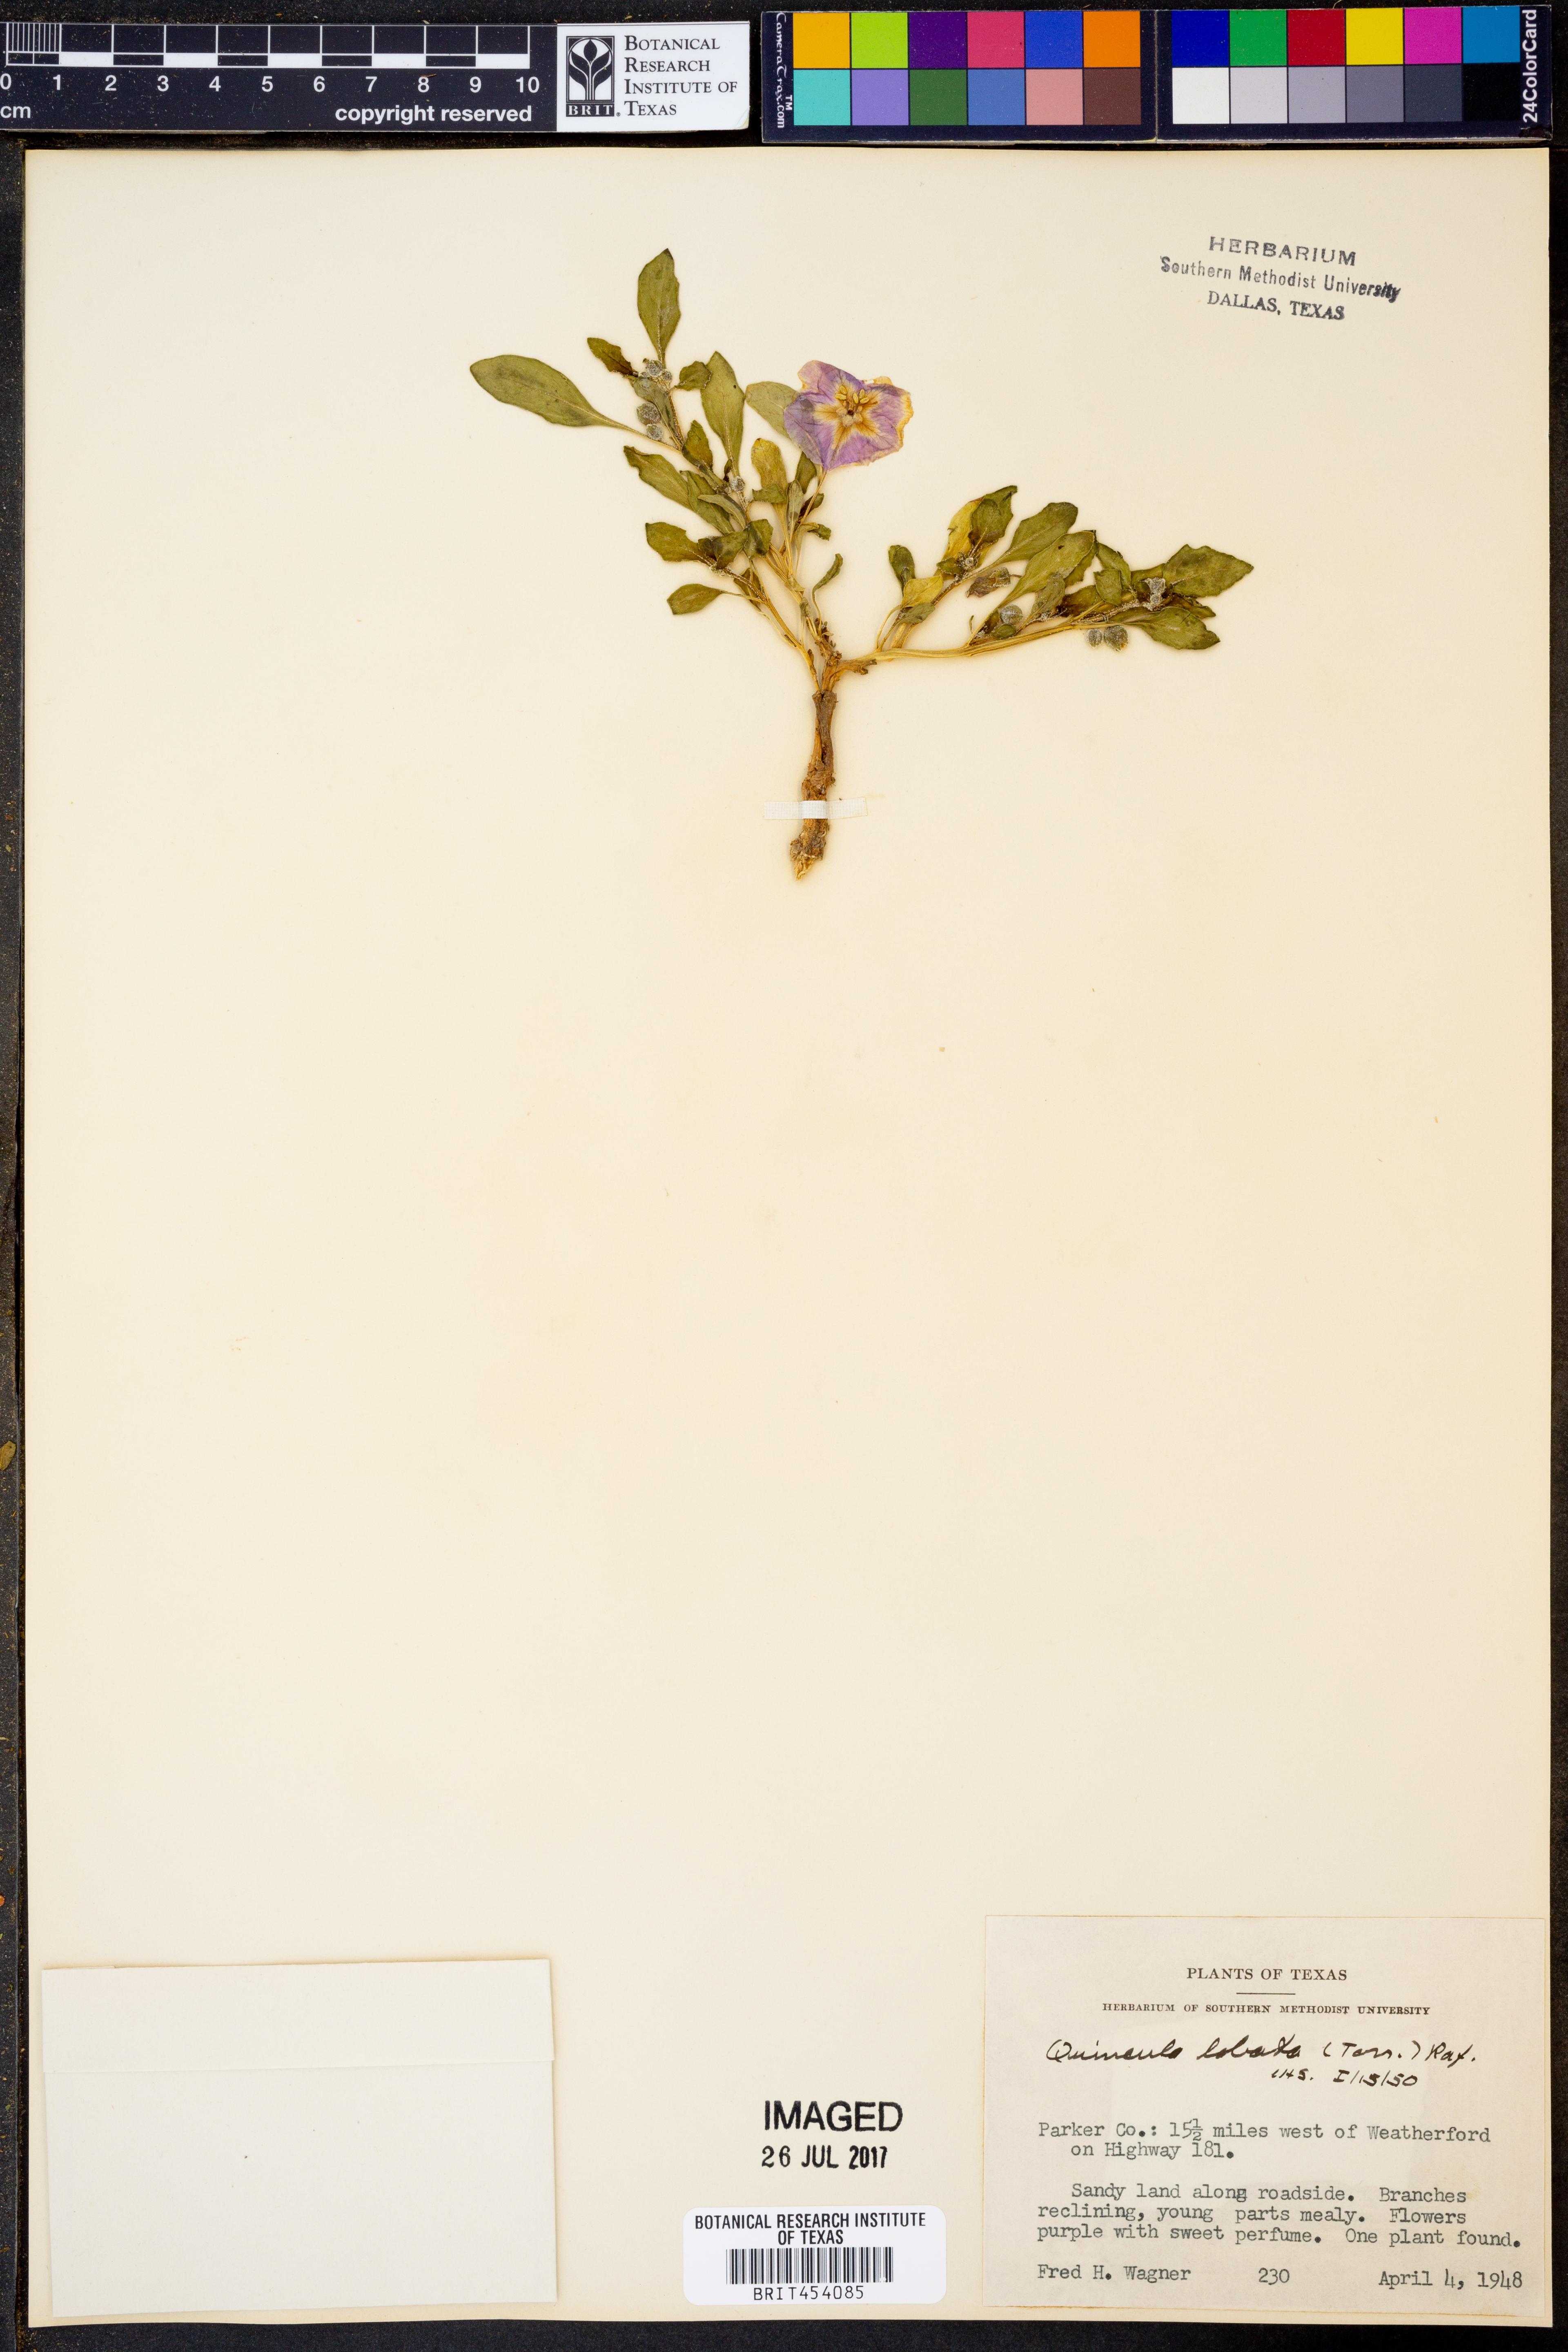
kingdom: Plantae
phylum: Tracheophyta
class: Magnoliopsida
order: Solanales
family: Solanaceae
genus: Quincula
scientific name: Quincula lobata
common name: Purple-ground-cherry
